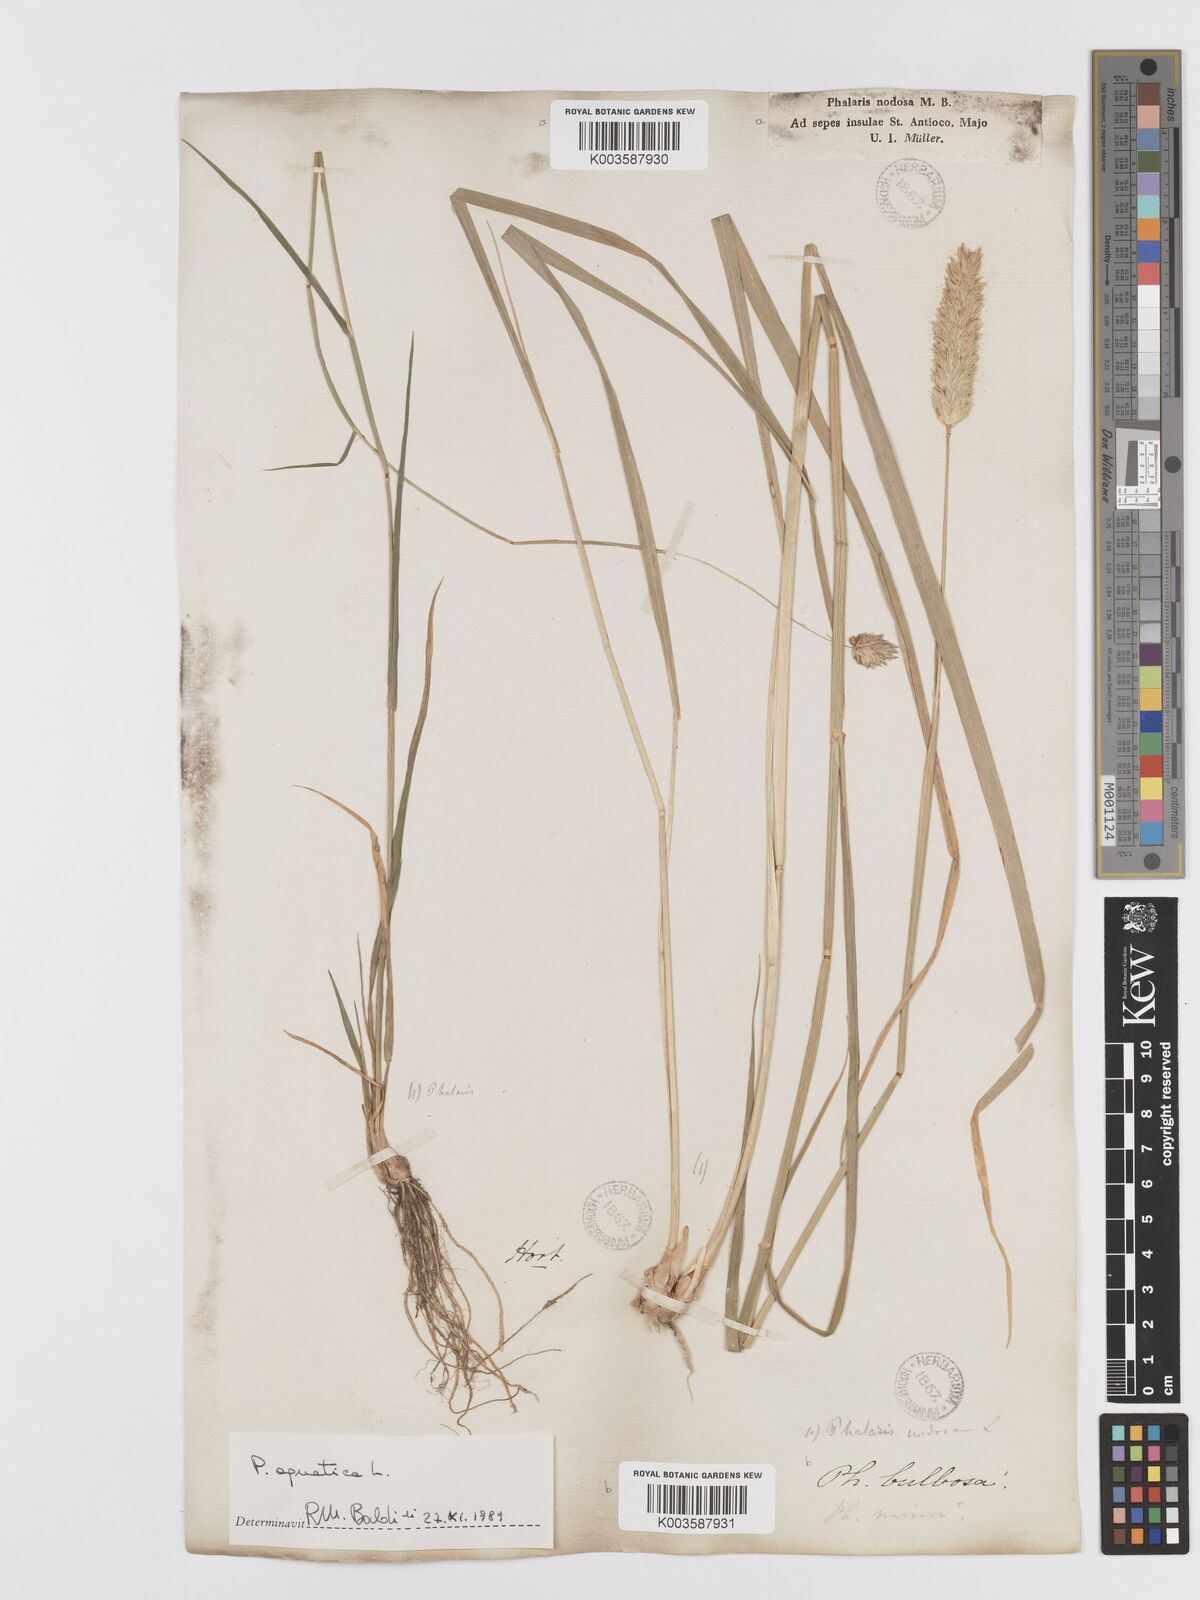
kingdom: Plantae
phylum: Tracheophyta
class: Liliopsida
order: Poales
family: Poaceae
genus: Phalaris
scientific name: Phalaris
